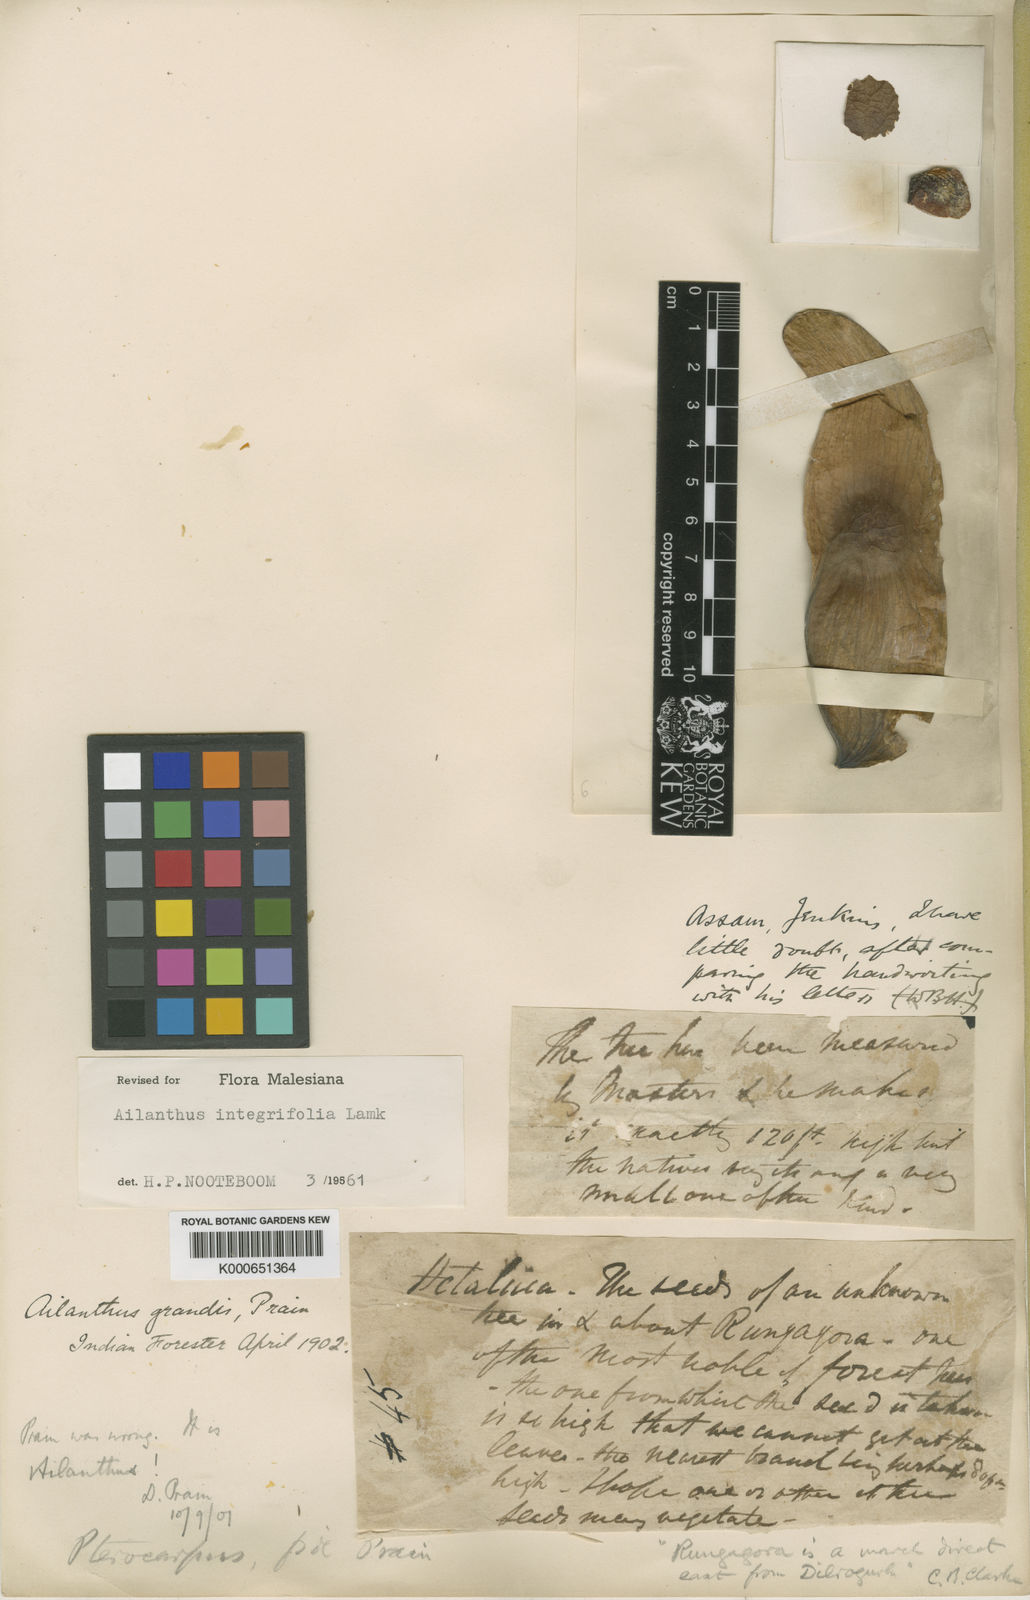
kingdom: Plantae
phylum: Tracheophyta
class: Magnoliopsida
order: Sapindales
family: Simaroubaceae
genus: Ailanthus
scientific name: Ailanthus integrifolia
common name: White siris
